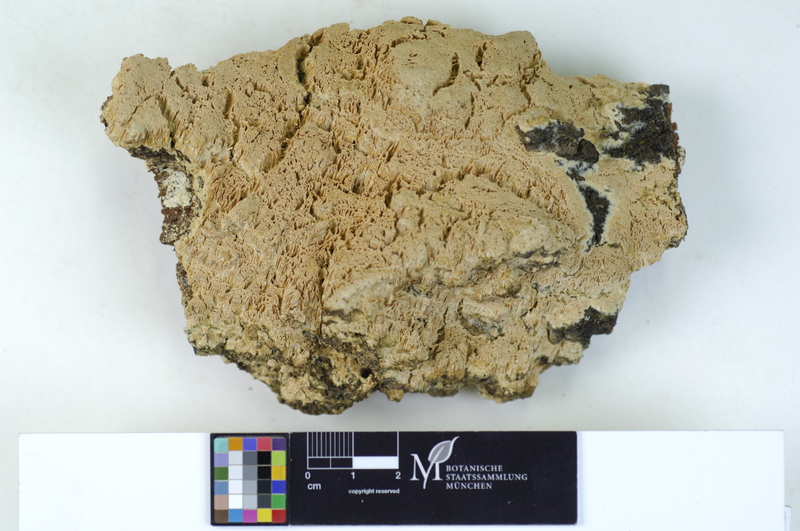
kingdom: Fungi
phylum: Basidiomycota
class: Agaricomycetes
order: Hymenochaetales
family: Schizoporaceae
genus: Xylodon
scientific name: Xylodon flaviporus
